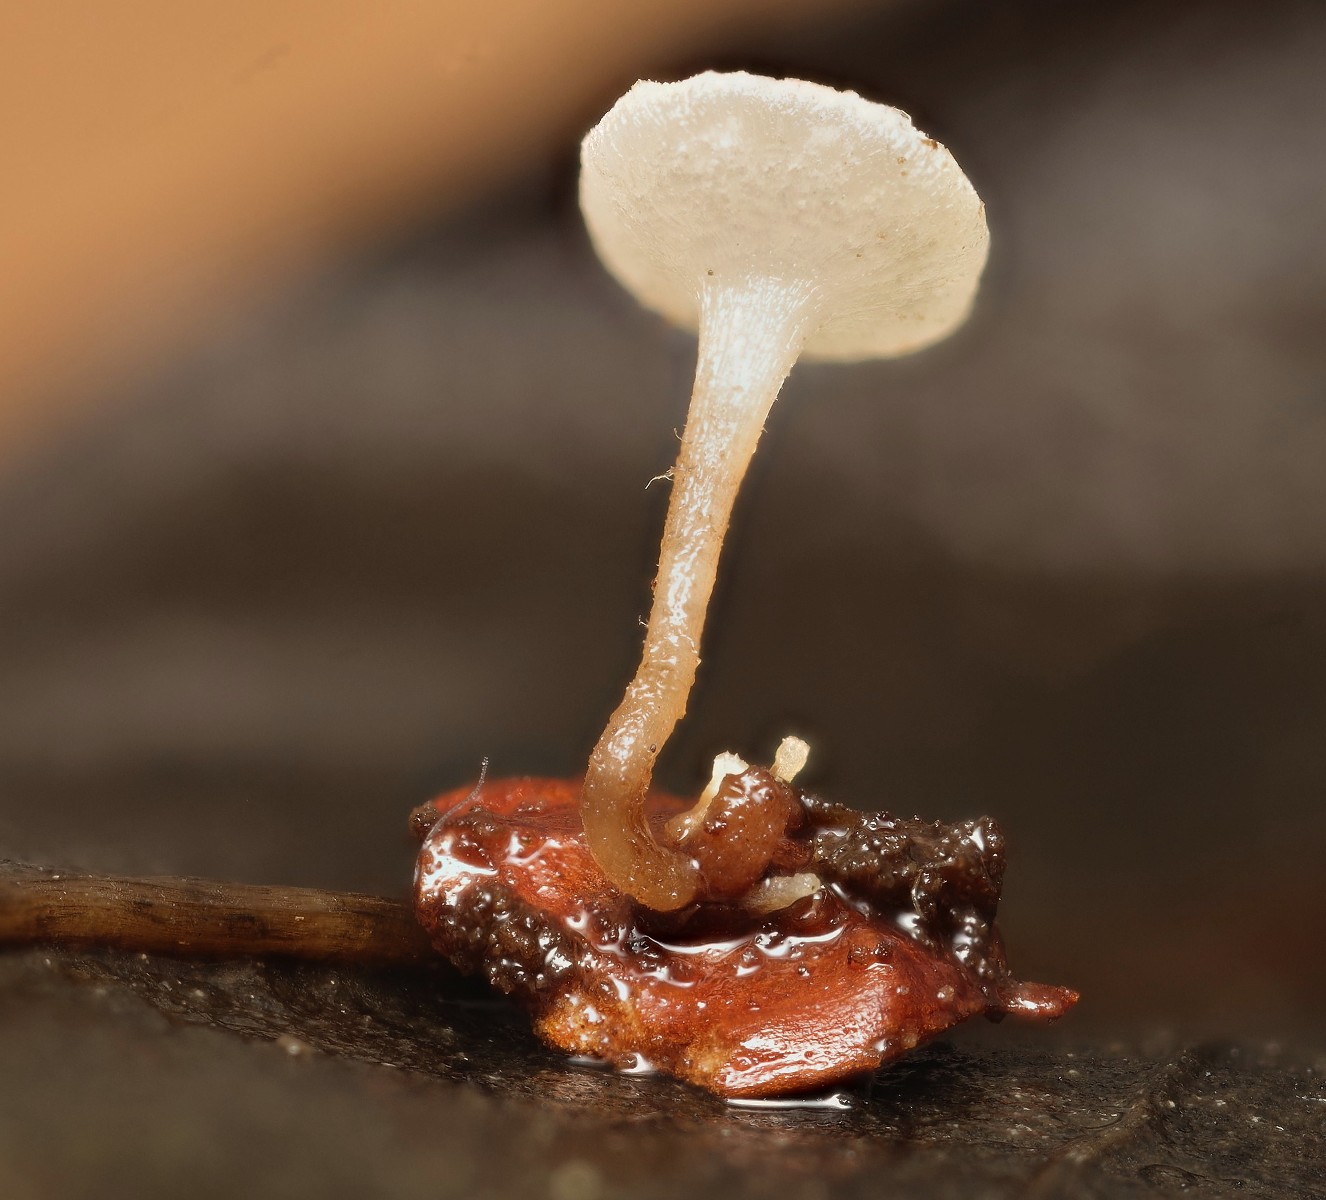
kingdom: Fungi
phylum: Ascomycota
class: Leotiomycetes
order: Helotiales
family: Helotiaceae
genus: Hymenoscyphus
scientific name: Hymenoscyphus seminis-alni
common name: ellefrø-stilkskive
